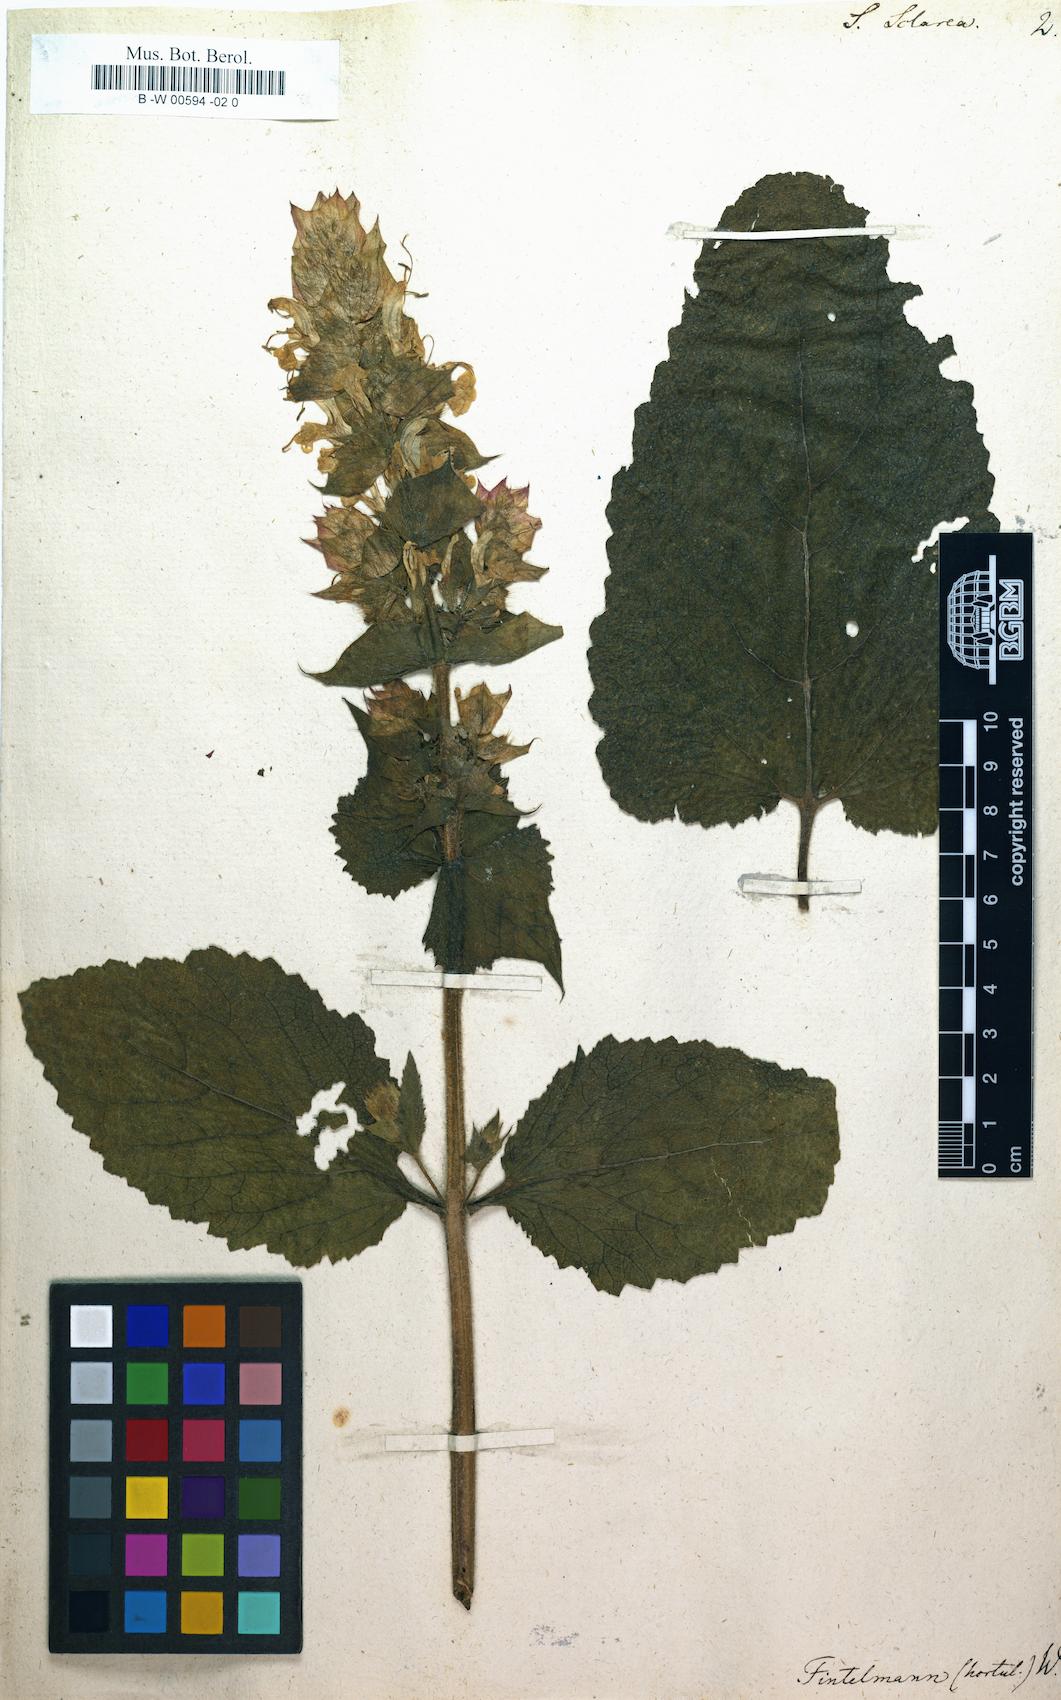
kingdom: Plantae
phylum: Tracheophyta
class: Magnoliopsida
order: Lamiales
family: Lamiaceae
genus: Salvia
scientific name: Salvia sclarea
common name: Clary
